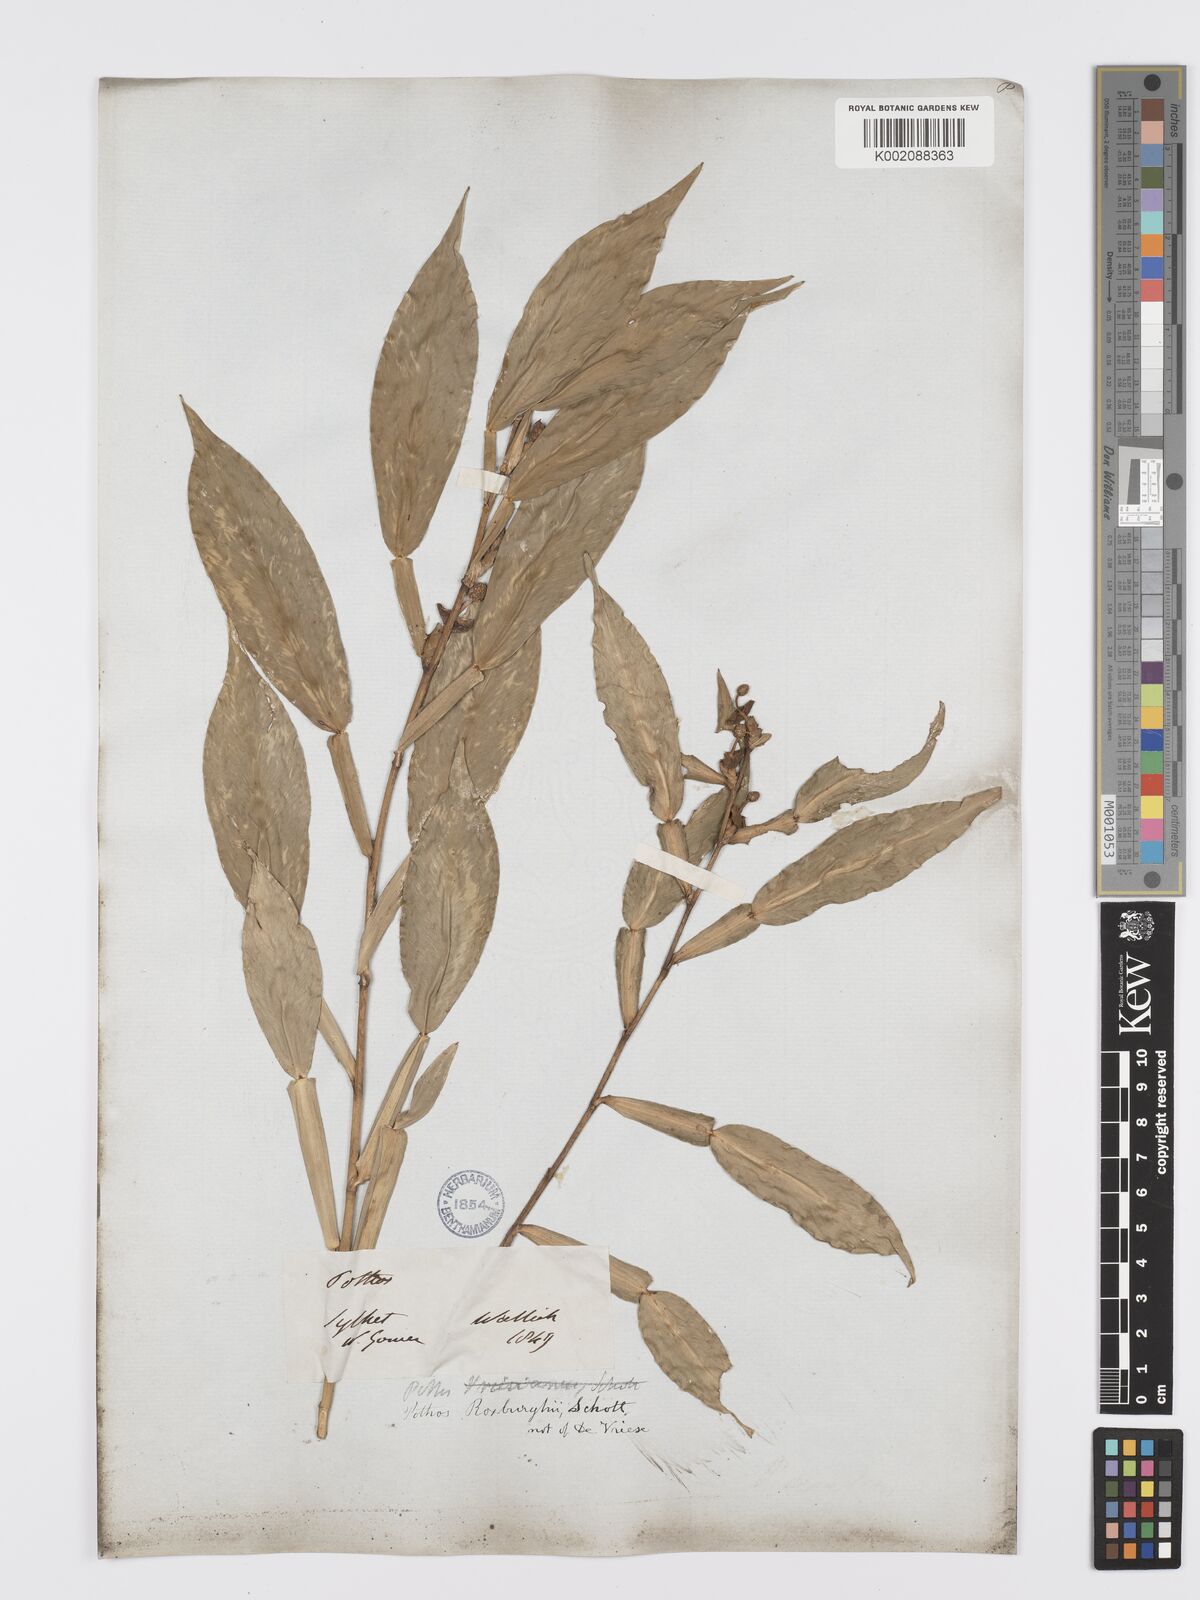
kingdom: Plantae
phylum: Tracheophyta
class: Liliopsida
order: Alismatales
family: Araceae
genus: Pothos
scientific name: Pothos scandens
